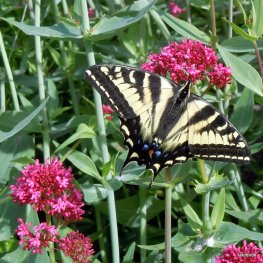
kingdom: Animalia
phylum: Arthropoda
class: Insecta
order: Lepidoptera
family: Papilionidae
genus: Pterourus
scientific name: Pterourus rutulus
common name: Western Tiger Swallowtail
